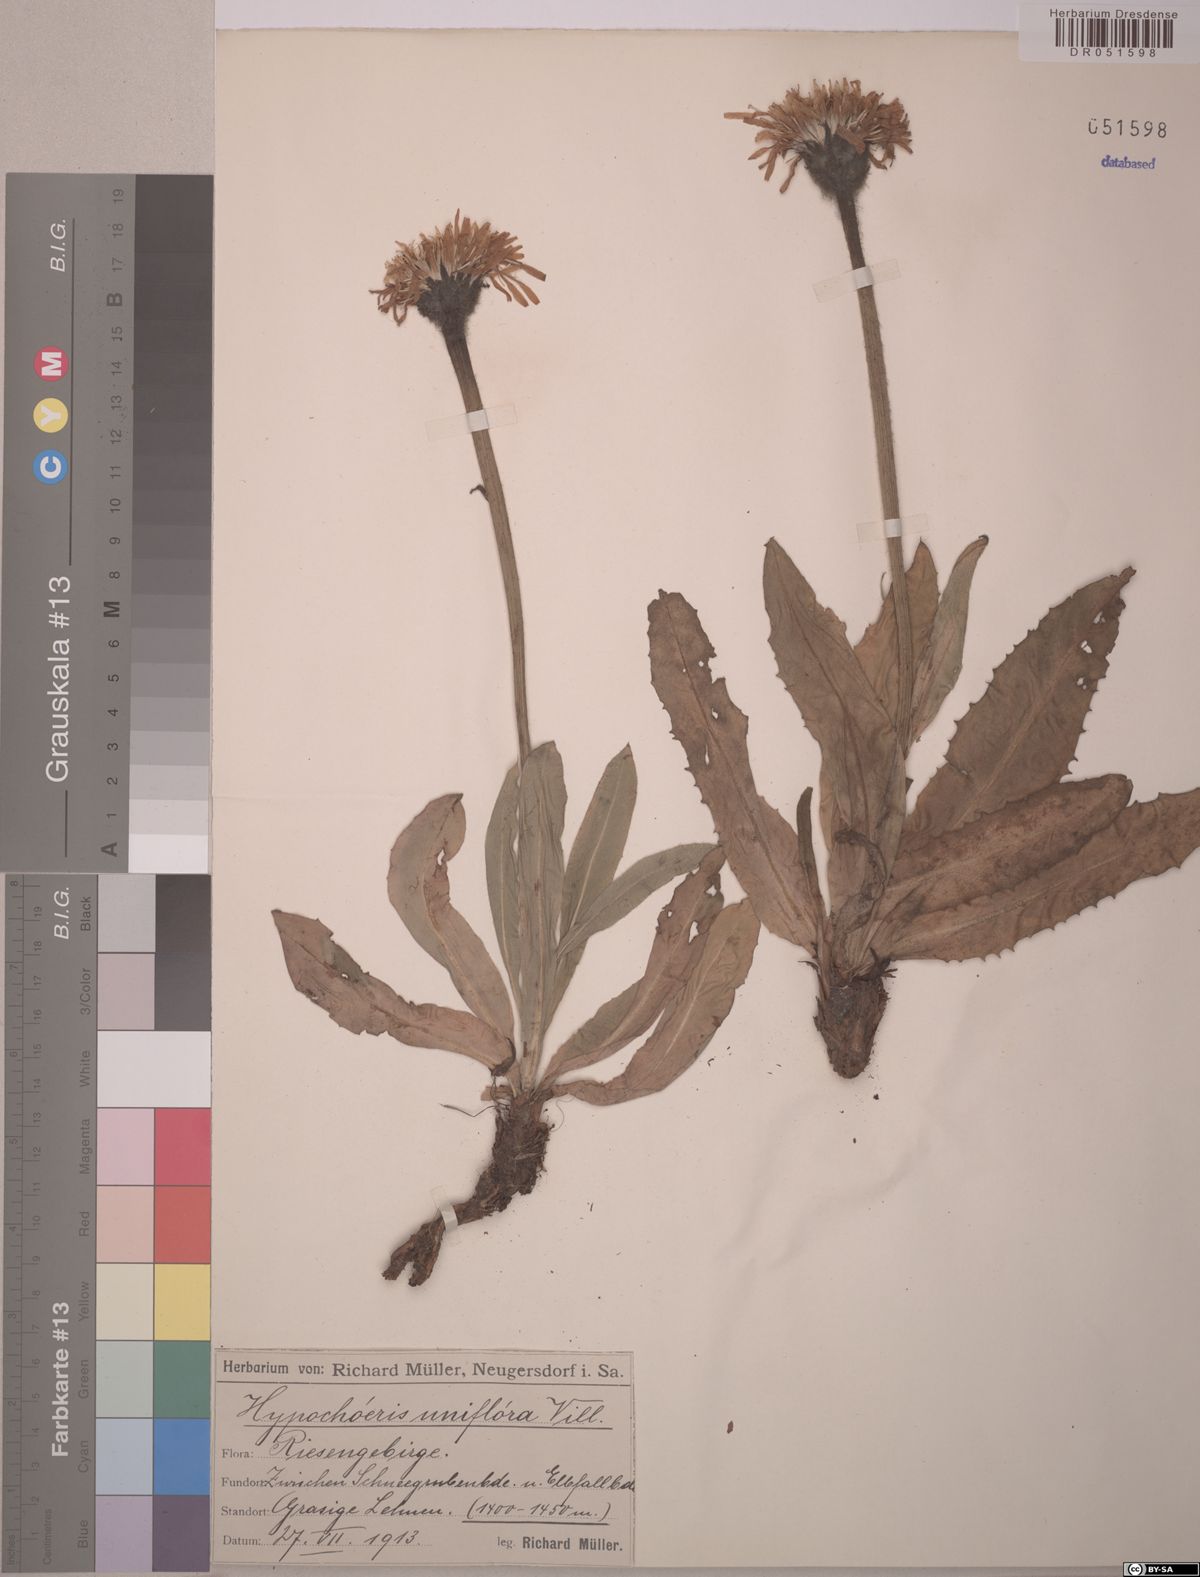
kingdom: Plantae
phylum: Tracheophyta
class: Magnoliopsida
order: Asterales
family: Asteraceae
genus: Trommsdorffia
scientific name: Trommsdorffia uniflora
